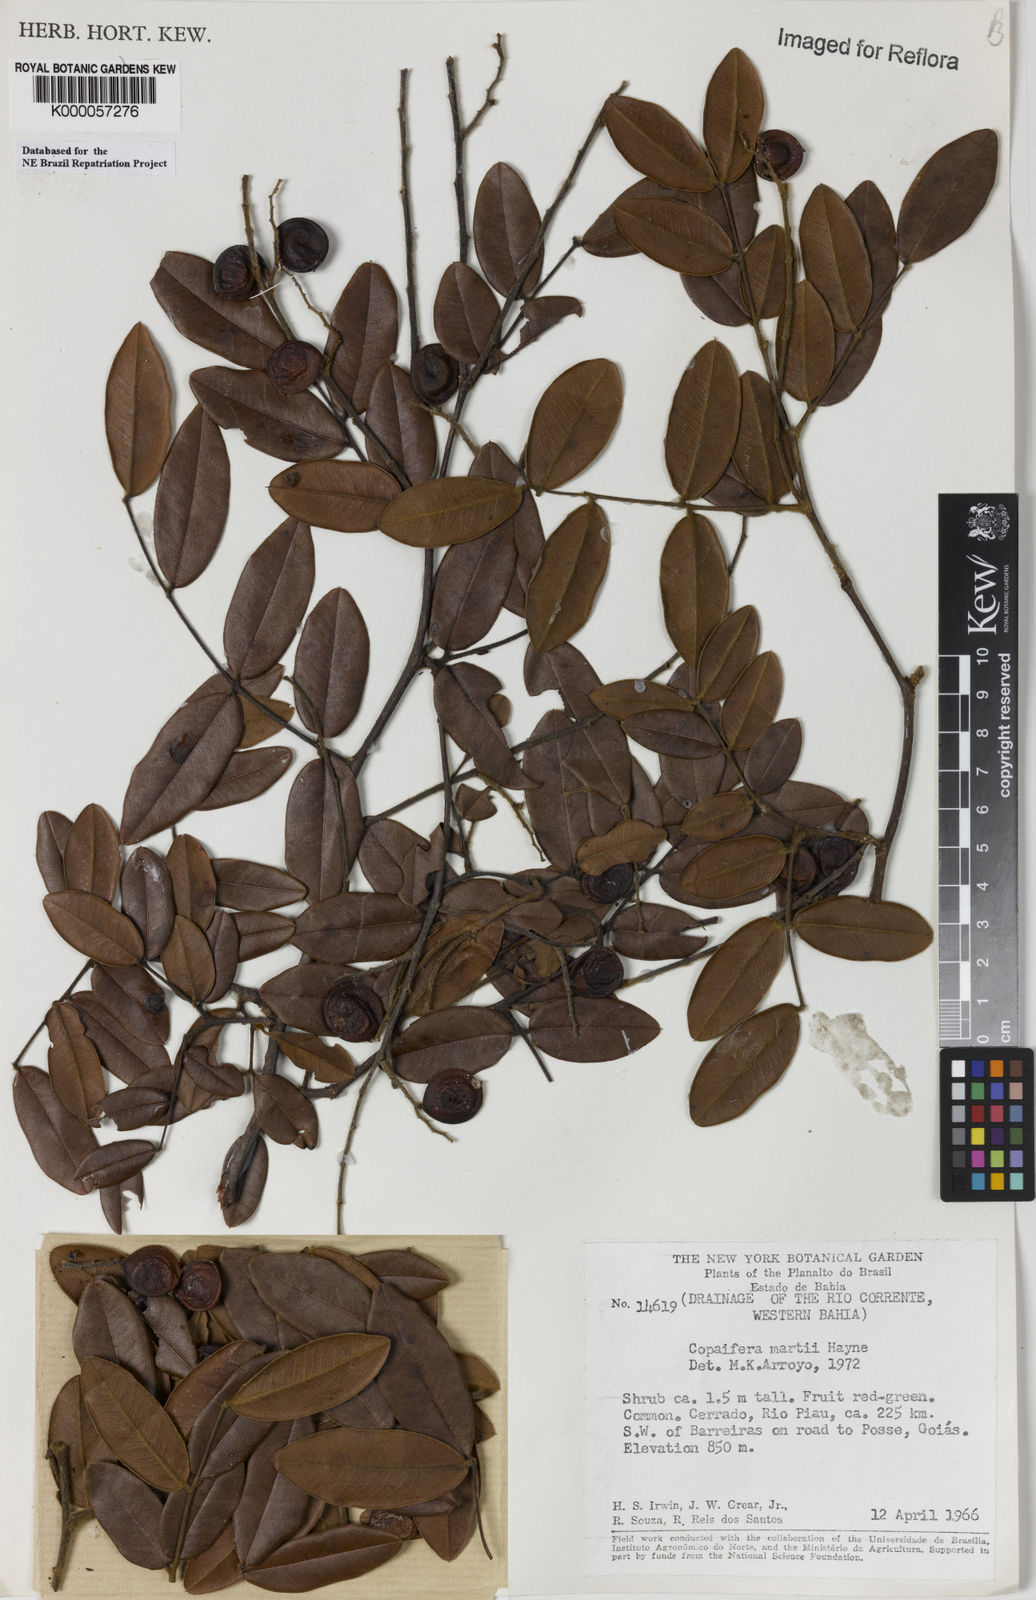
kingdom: Plantae
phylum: Tracheophyta
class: Magnoliopsida
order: Fabales
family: Fabaceae
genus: Copaifera
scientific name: Copaifera martii
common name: Copaiba
